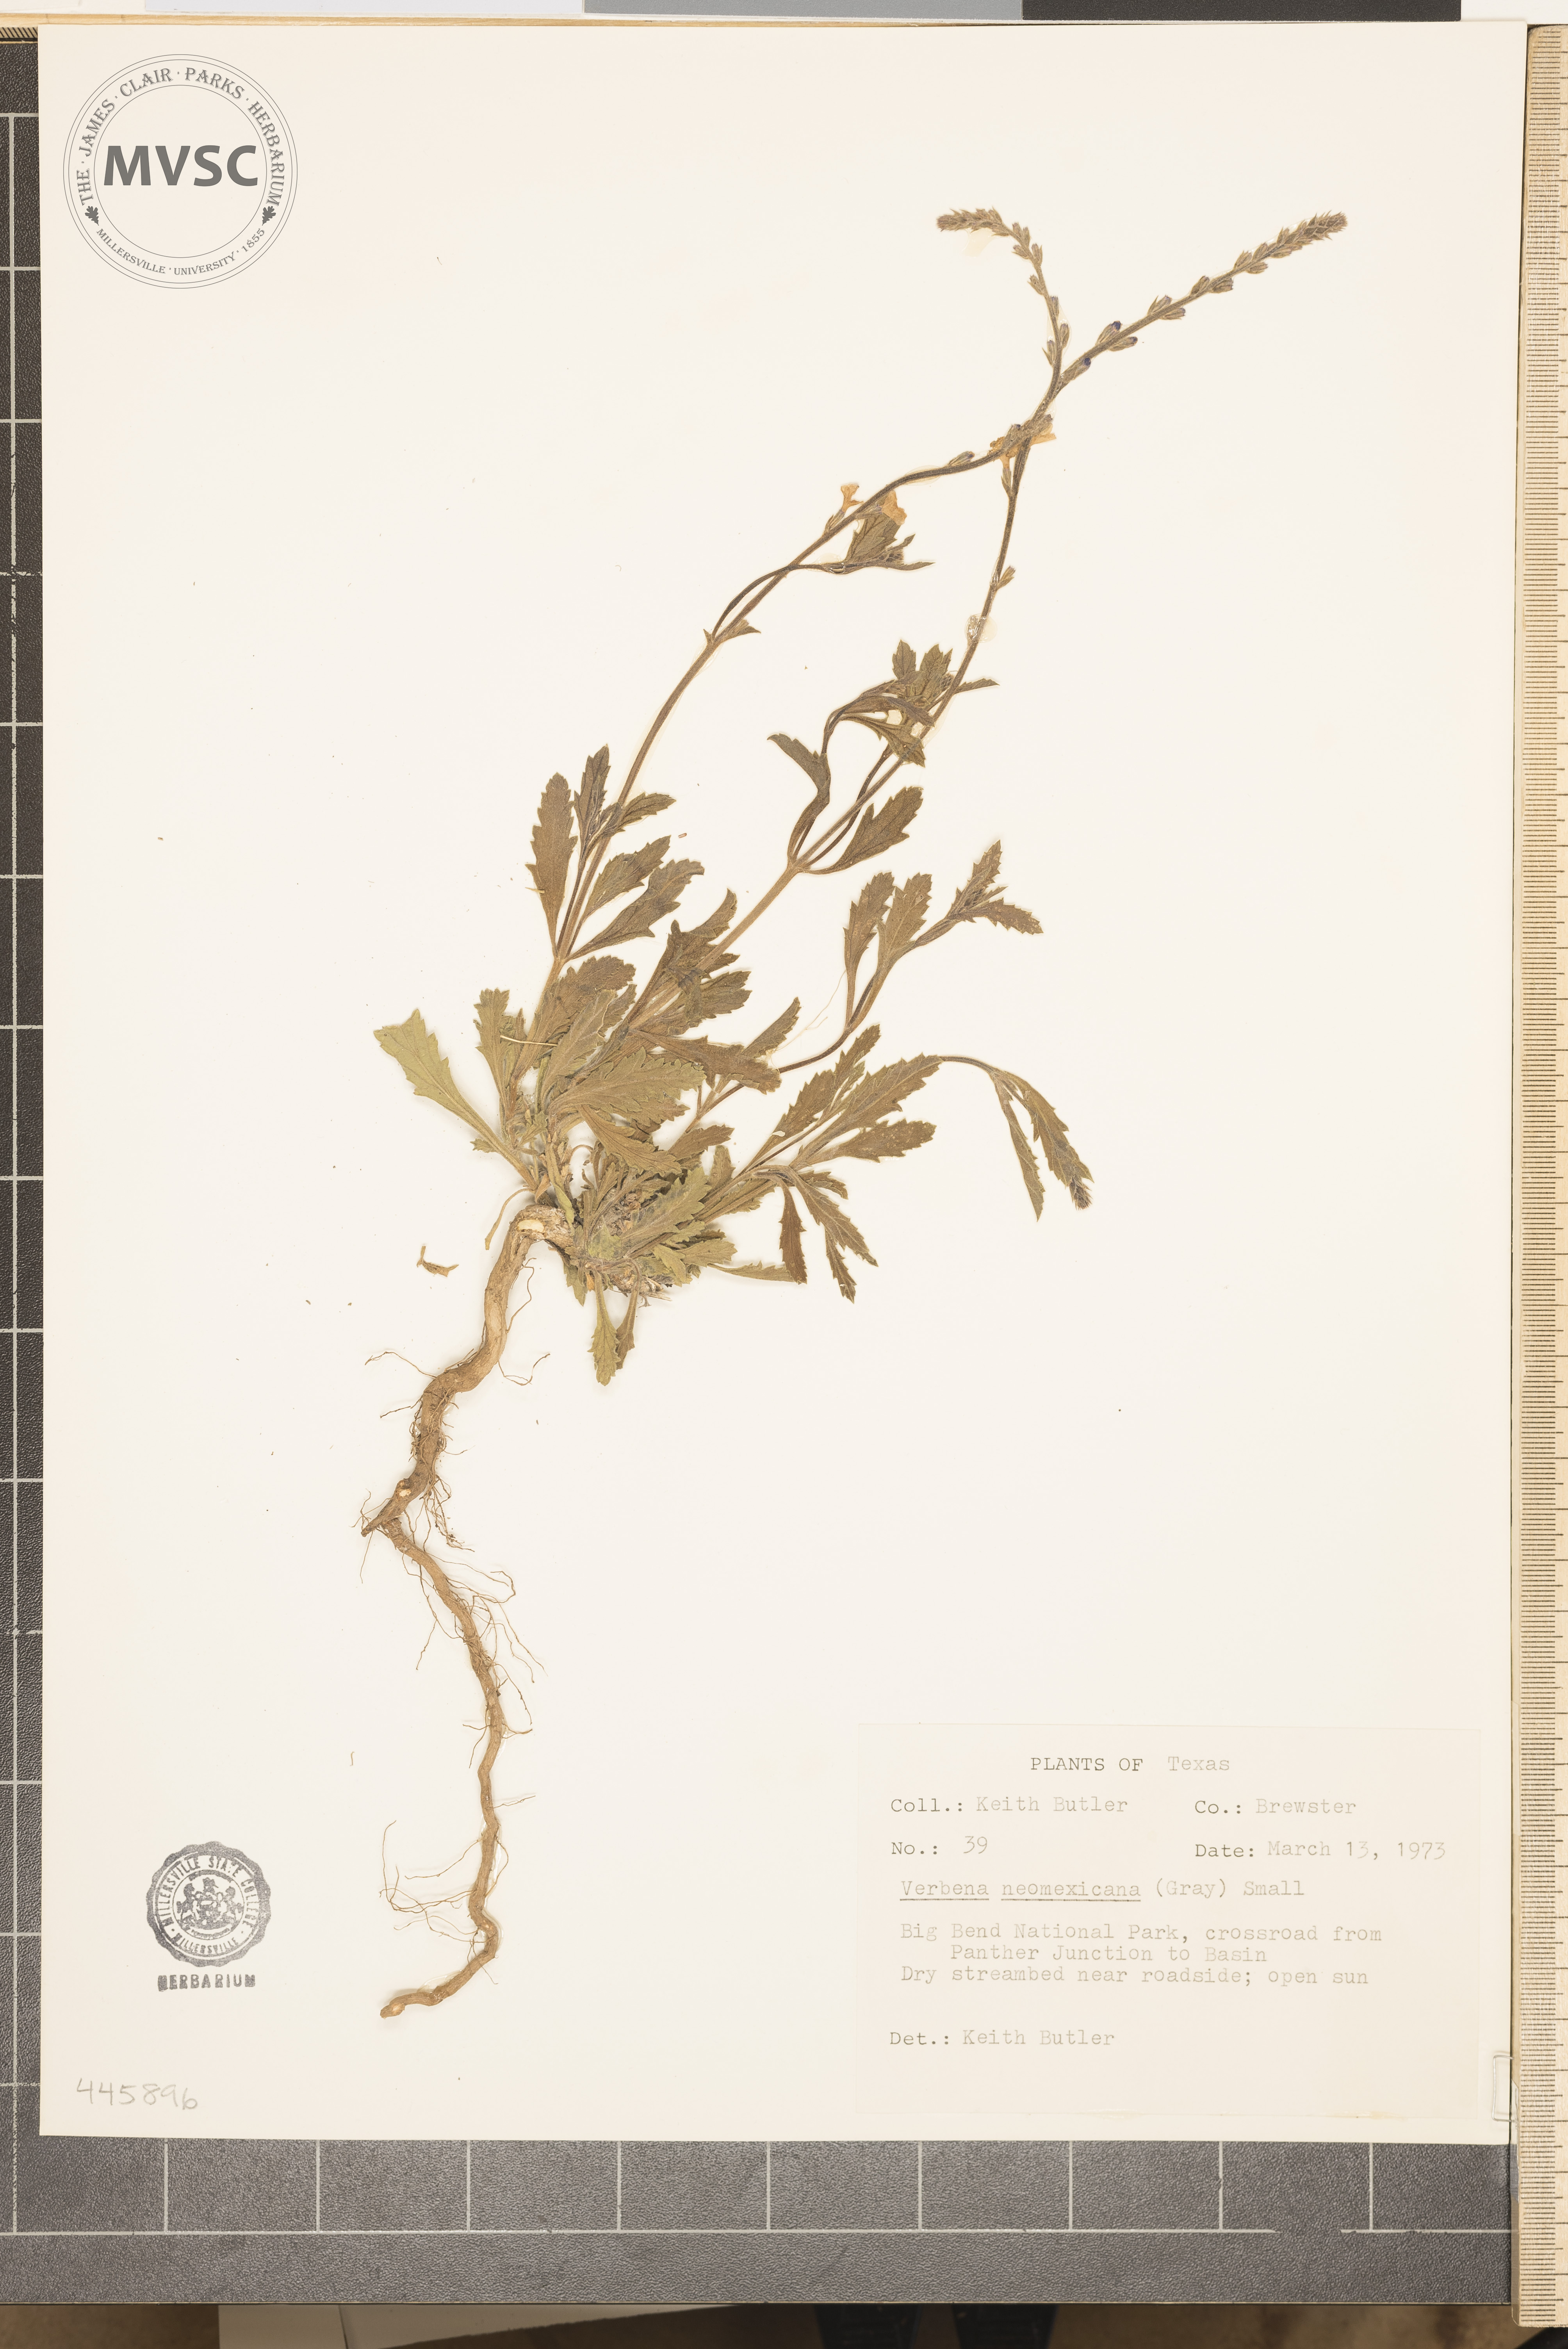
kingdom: Plantae
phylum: Tracheophyta
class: Magnoliopsida
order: Lamiales
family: Verbenaceae
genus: Verbena
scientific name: Verbena neomexicana
